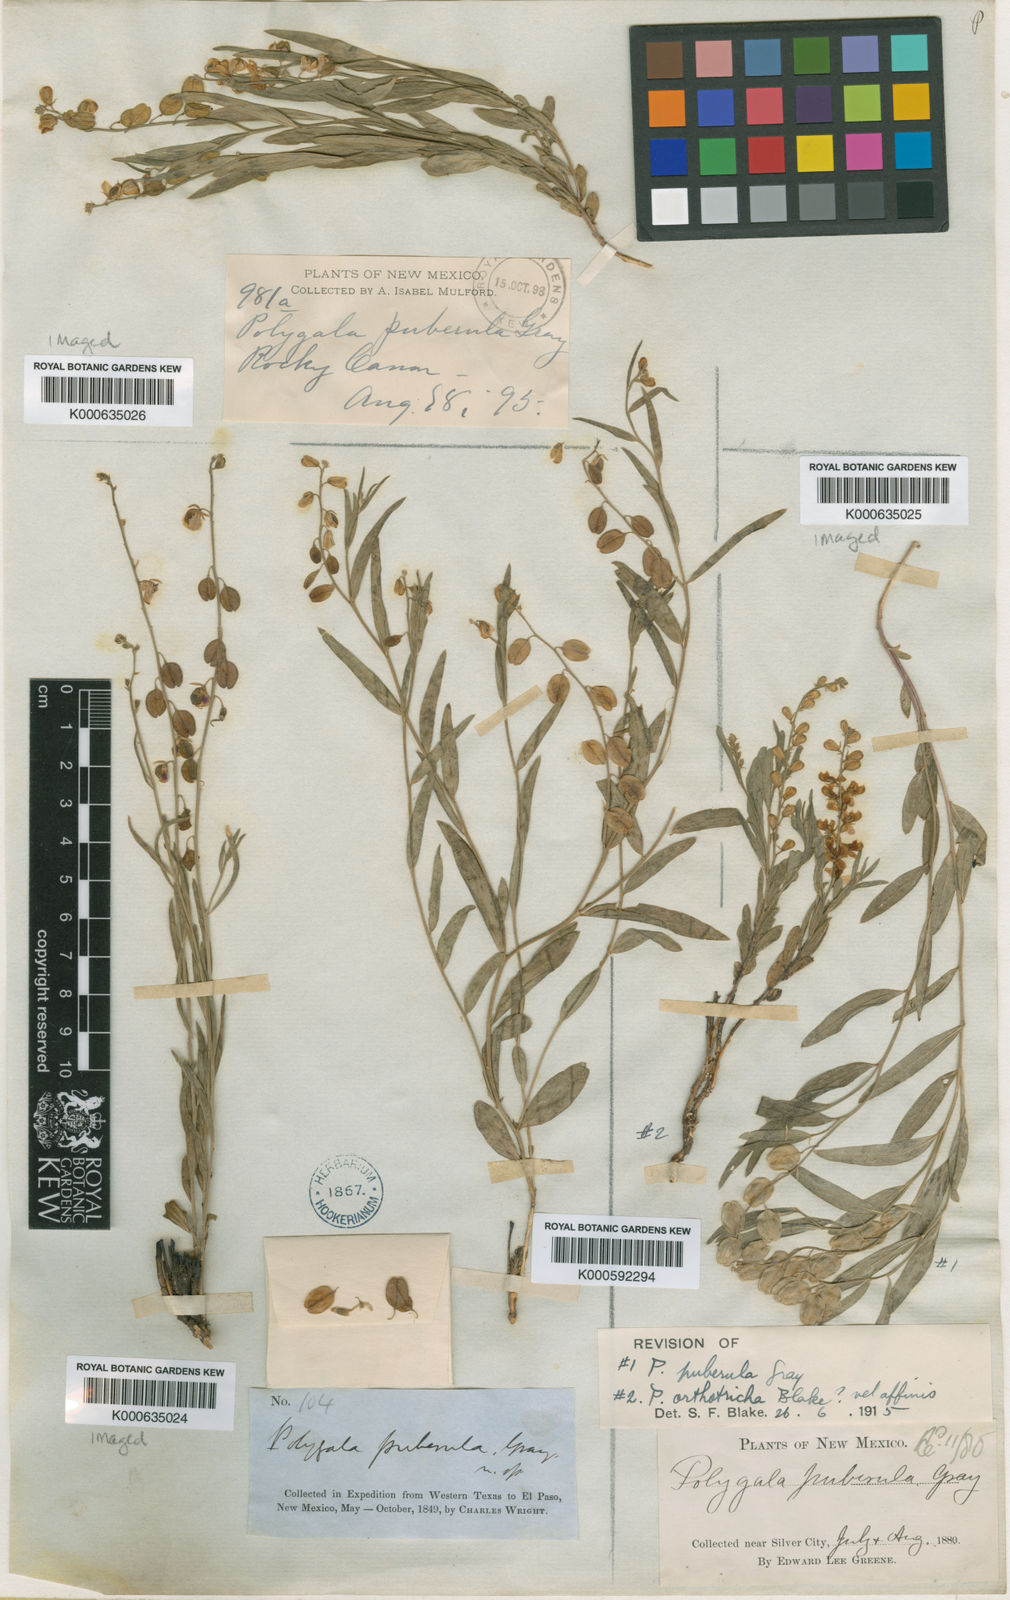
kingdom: Plantae
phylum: Tracheophyta
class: Magnoliopsida
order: Fabales
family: Polygalaceae
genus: Hebecarpa
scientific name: Hebecarpa obscura
